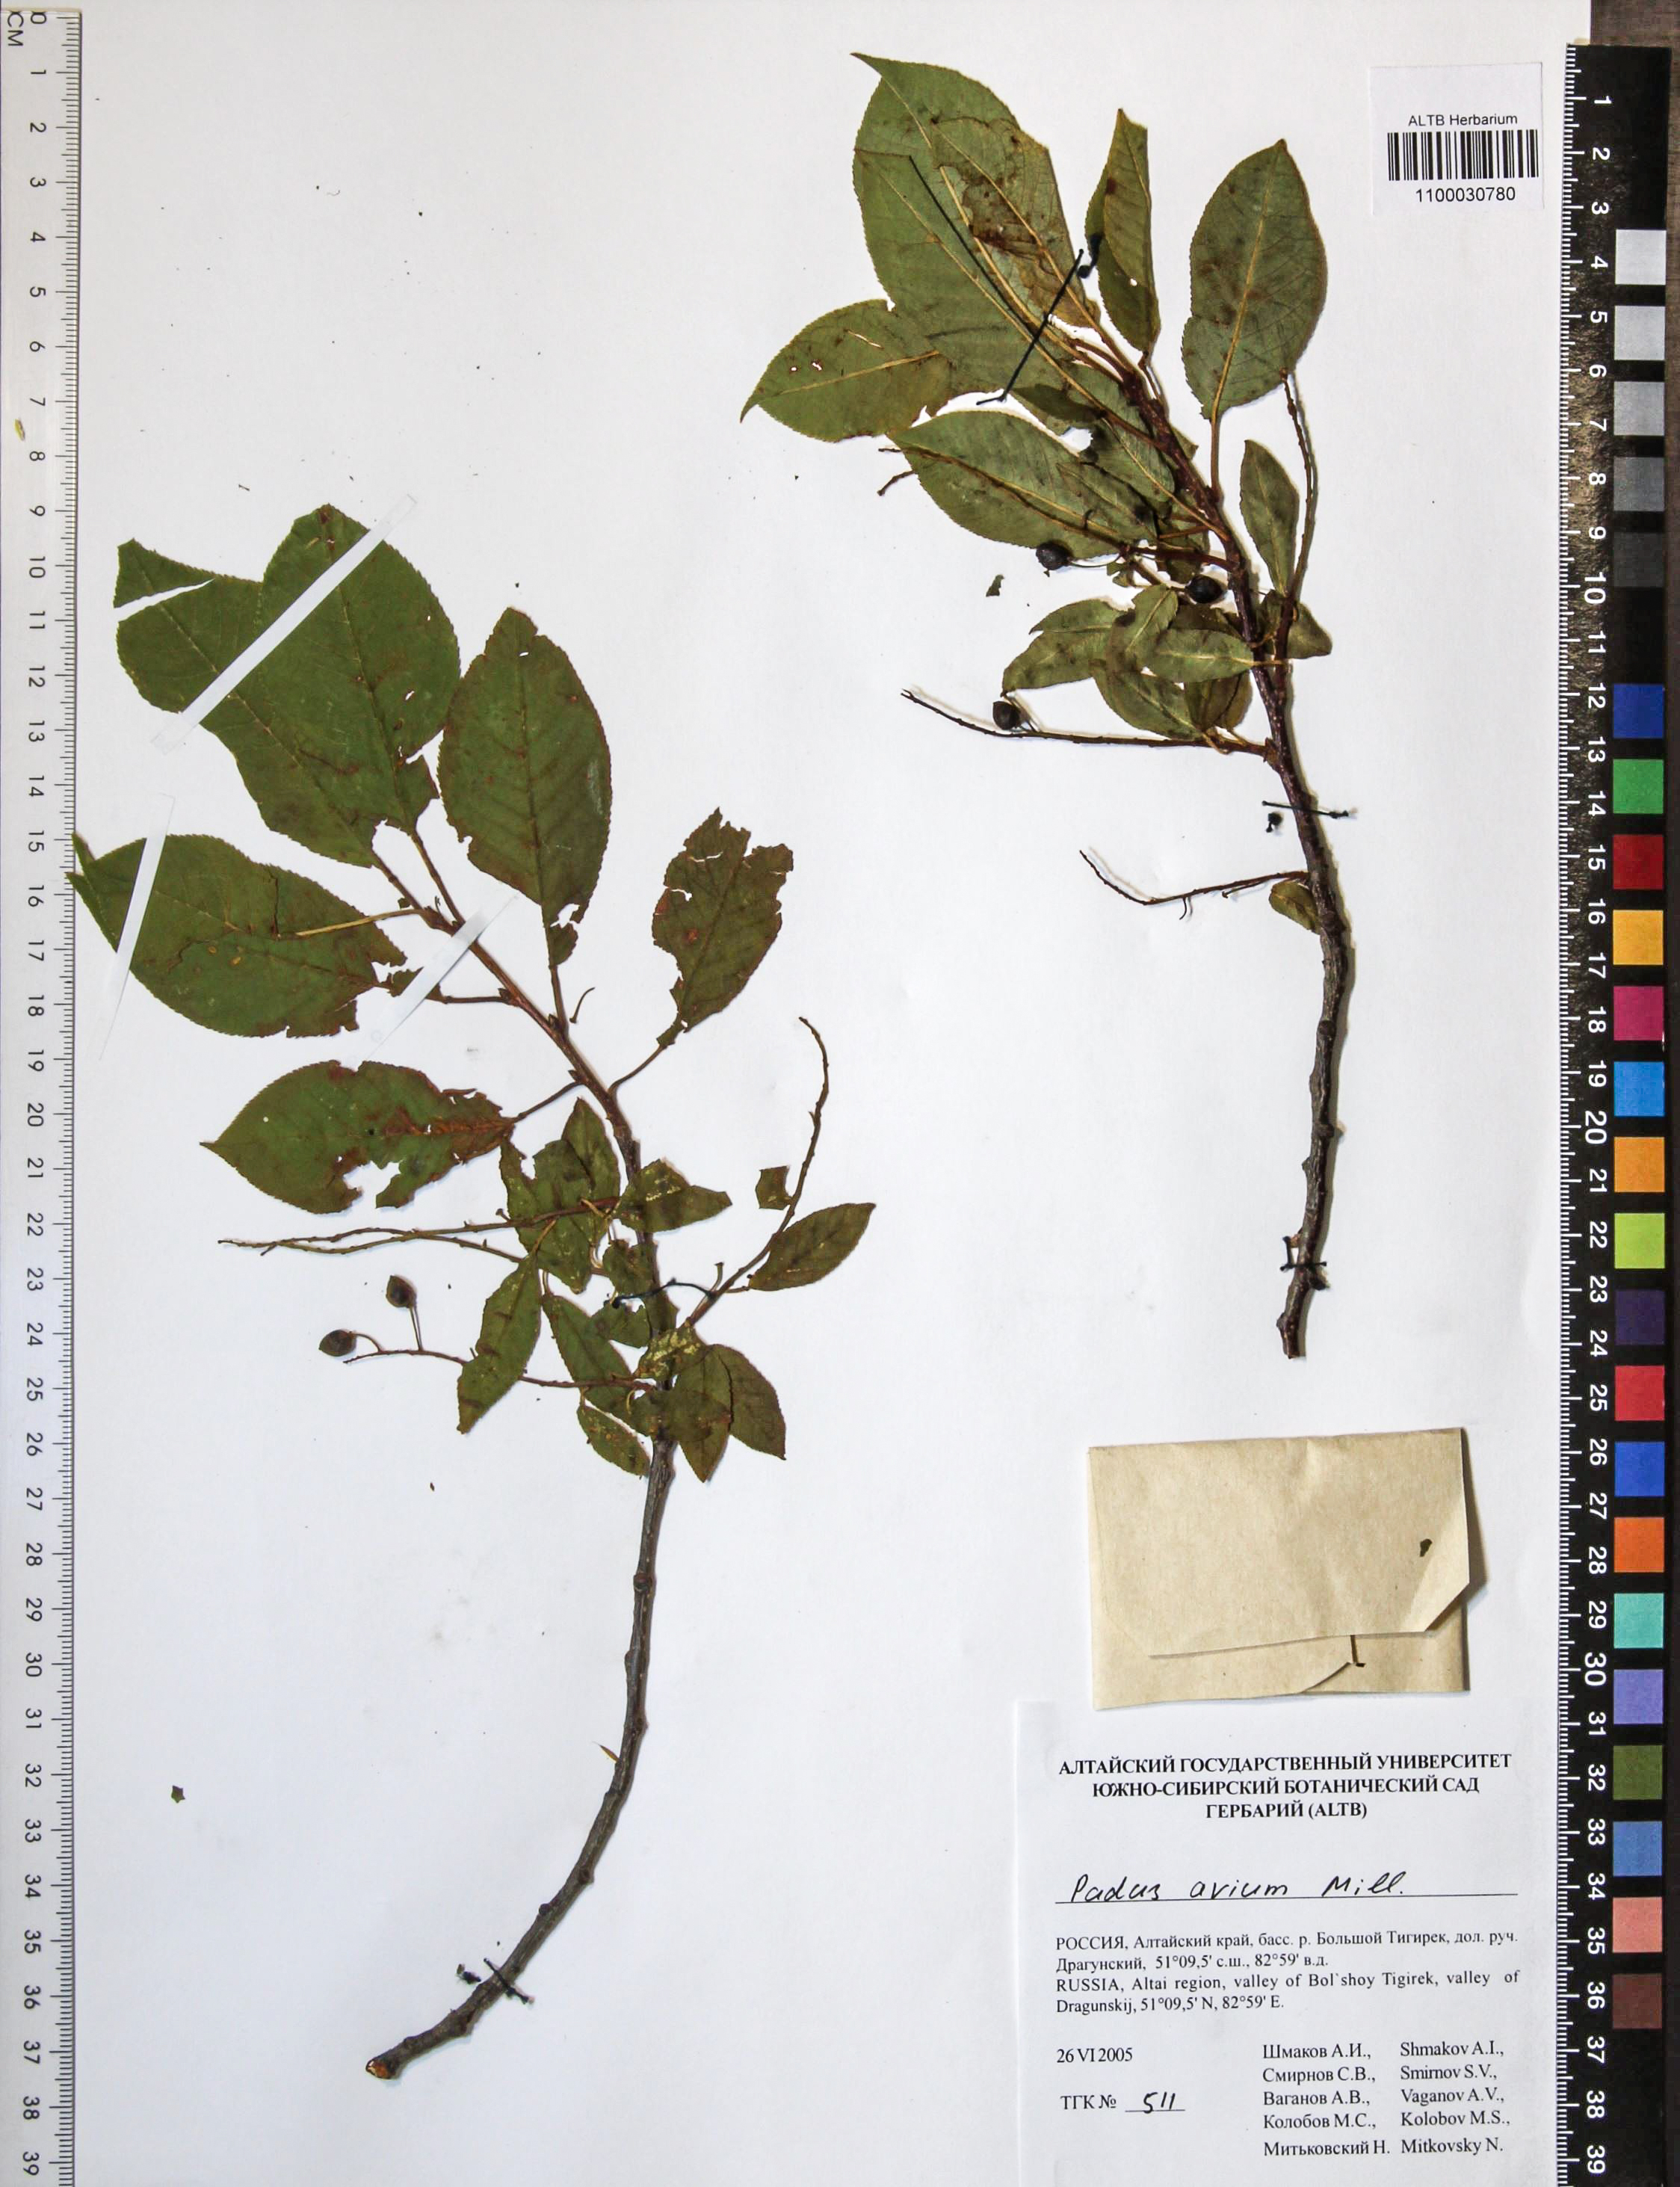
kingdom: Plantae
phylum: Tracheophyta
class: Magnoliopsida
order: Rosales
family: Rosaceae
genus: Prunus
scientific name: Prunus padus
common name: Bird cherry
